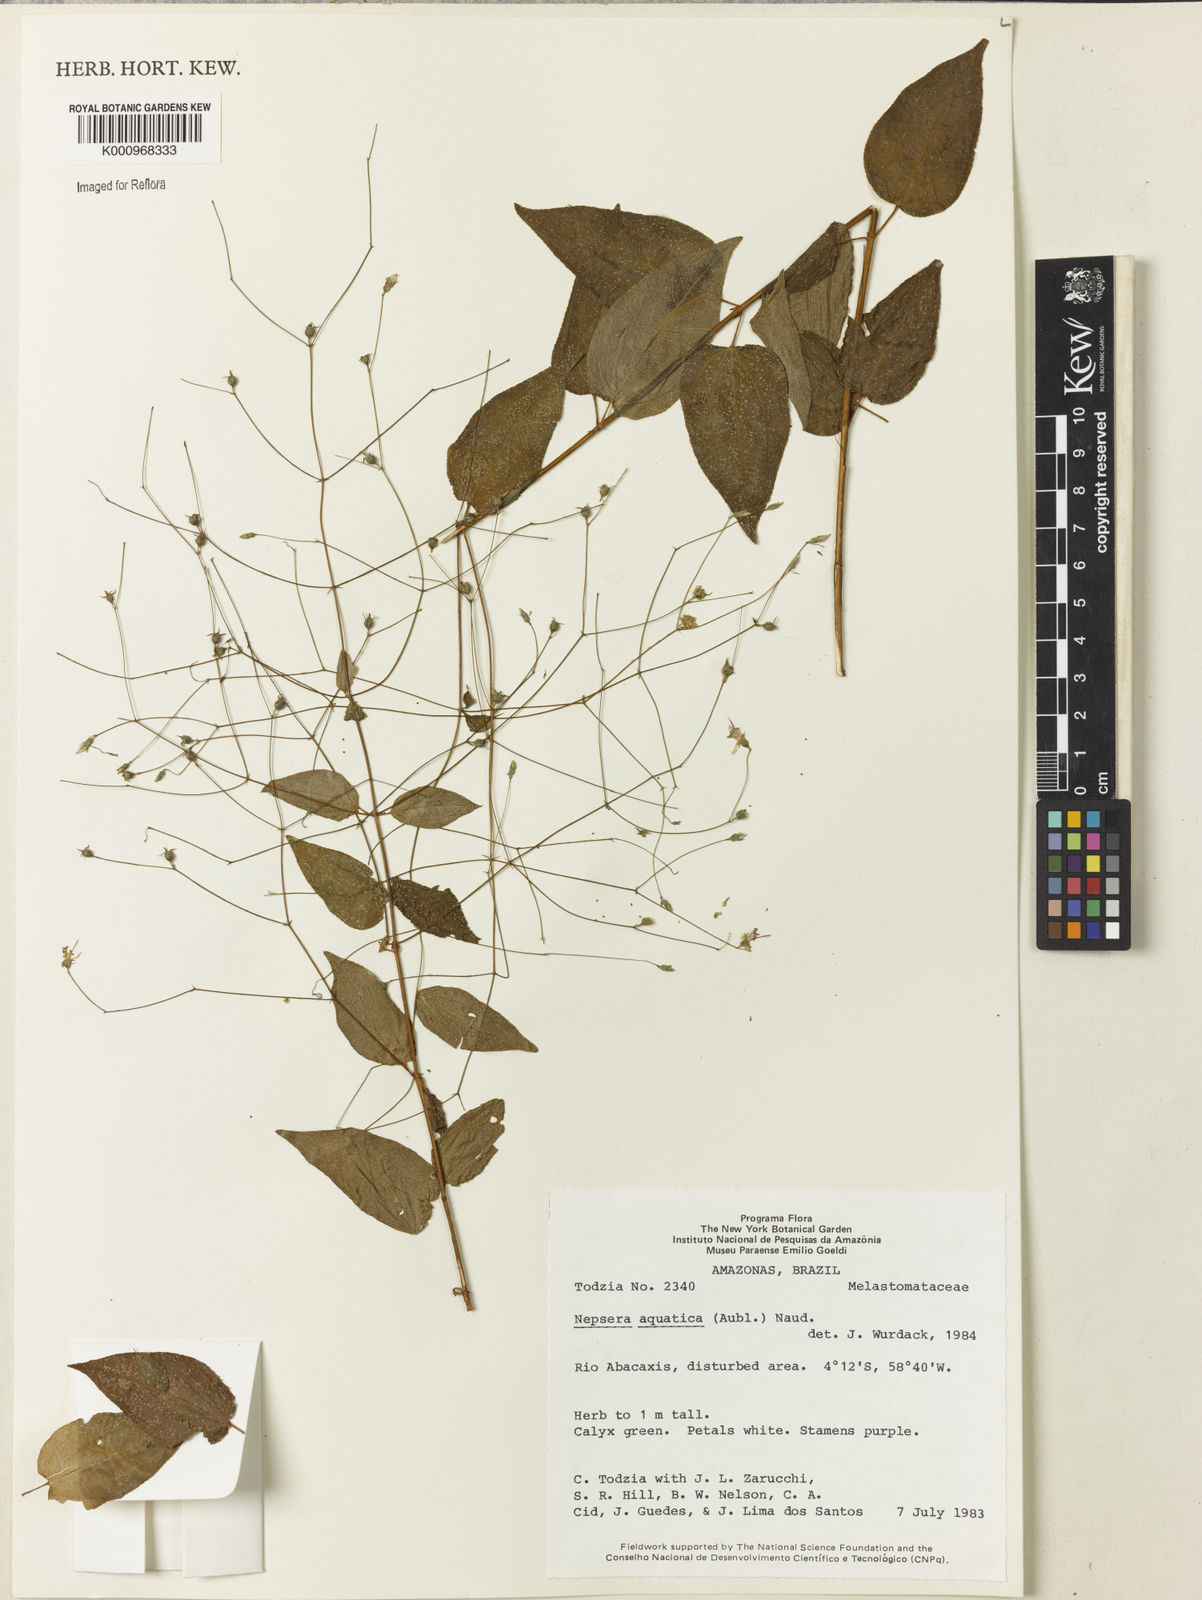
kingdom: Plantae
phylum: Tracheophyta
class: Magnoliopsida
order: Myrtales
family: Melastomataceae
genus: Nepsera
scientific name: Nepsera aquatica
